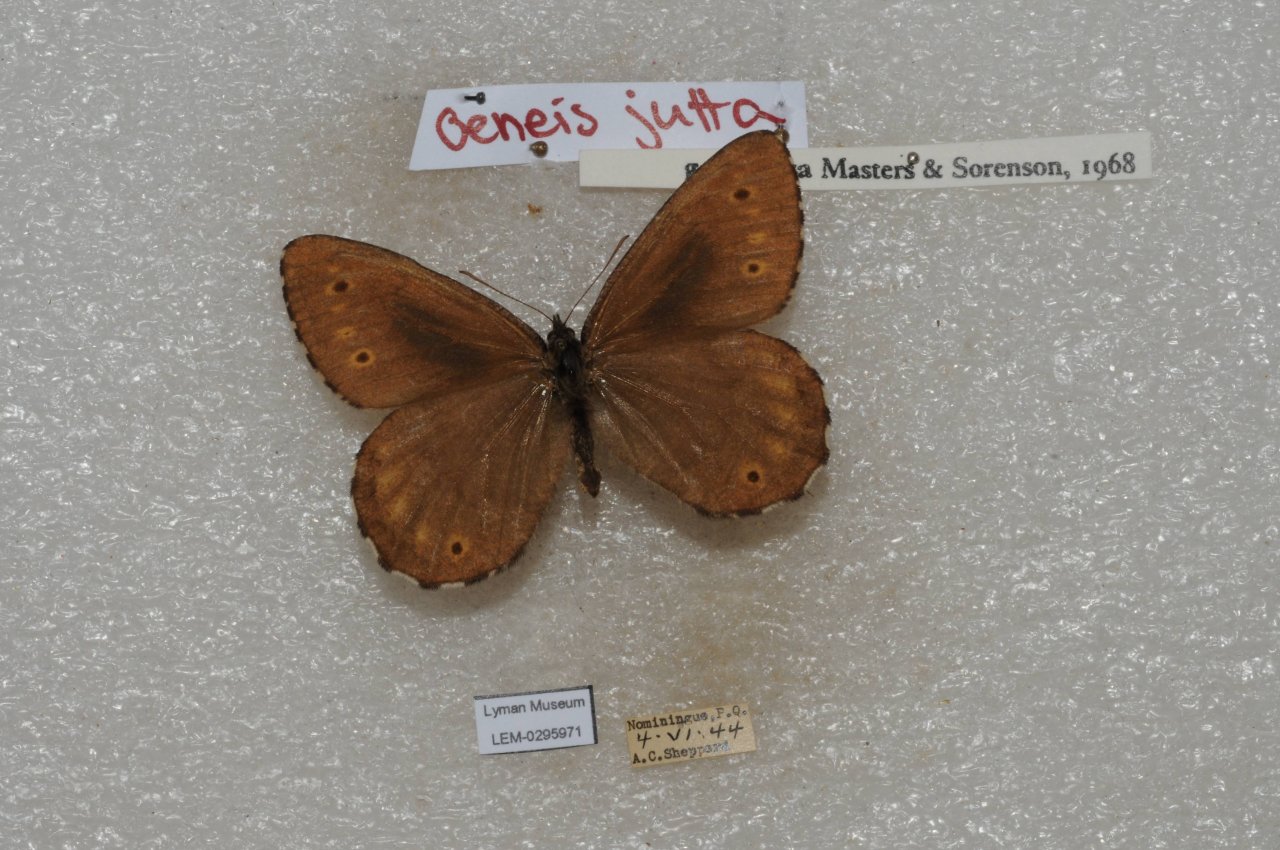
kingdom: Animalia
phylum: Arthropoda
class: Insecta
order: Lepidoptera
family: Nymphalidae
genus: Oeneis
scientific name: Oeneis jutta
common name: Jutta Arctic
